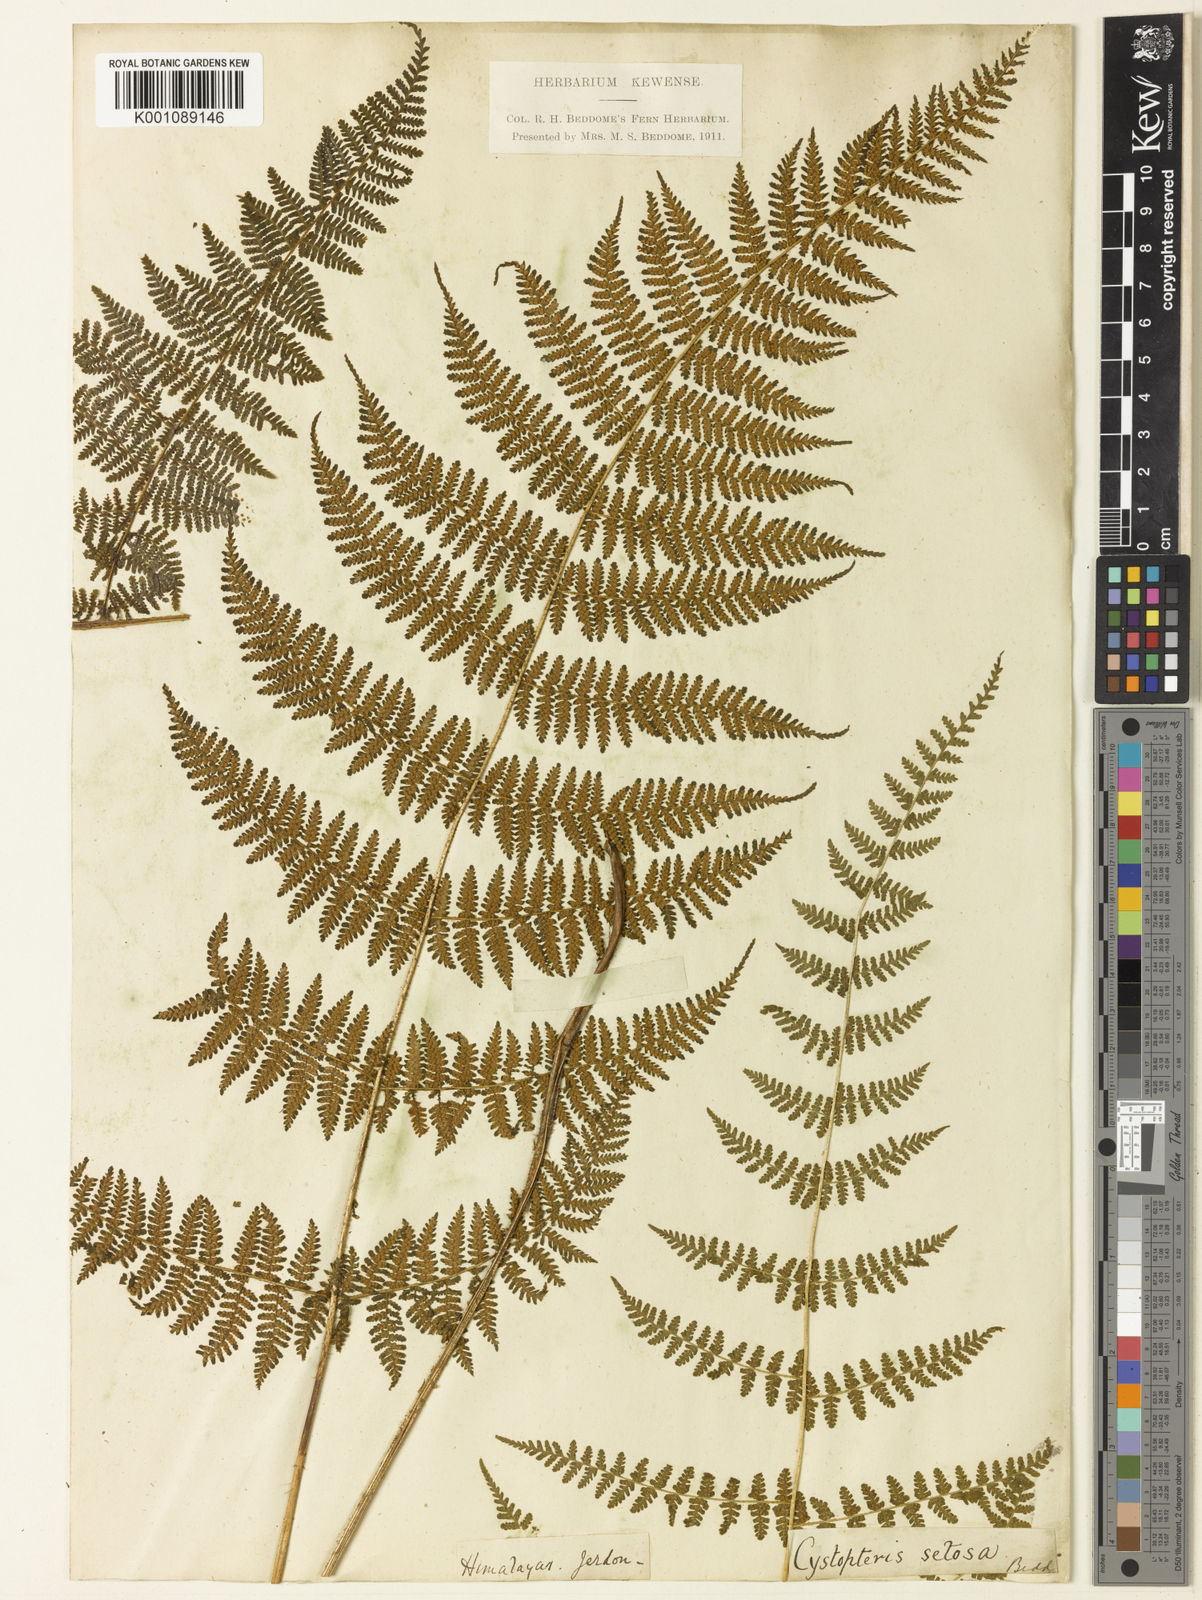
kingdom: Plantae
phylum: Tracheophyta
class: Polypodiopsida
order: Polypodiales
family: Cystopteridaceae
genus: Acystopteris
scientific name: Acystopteris tenuisecta
